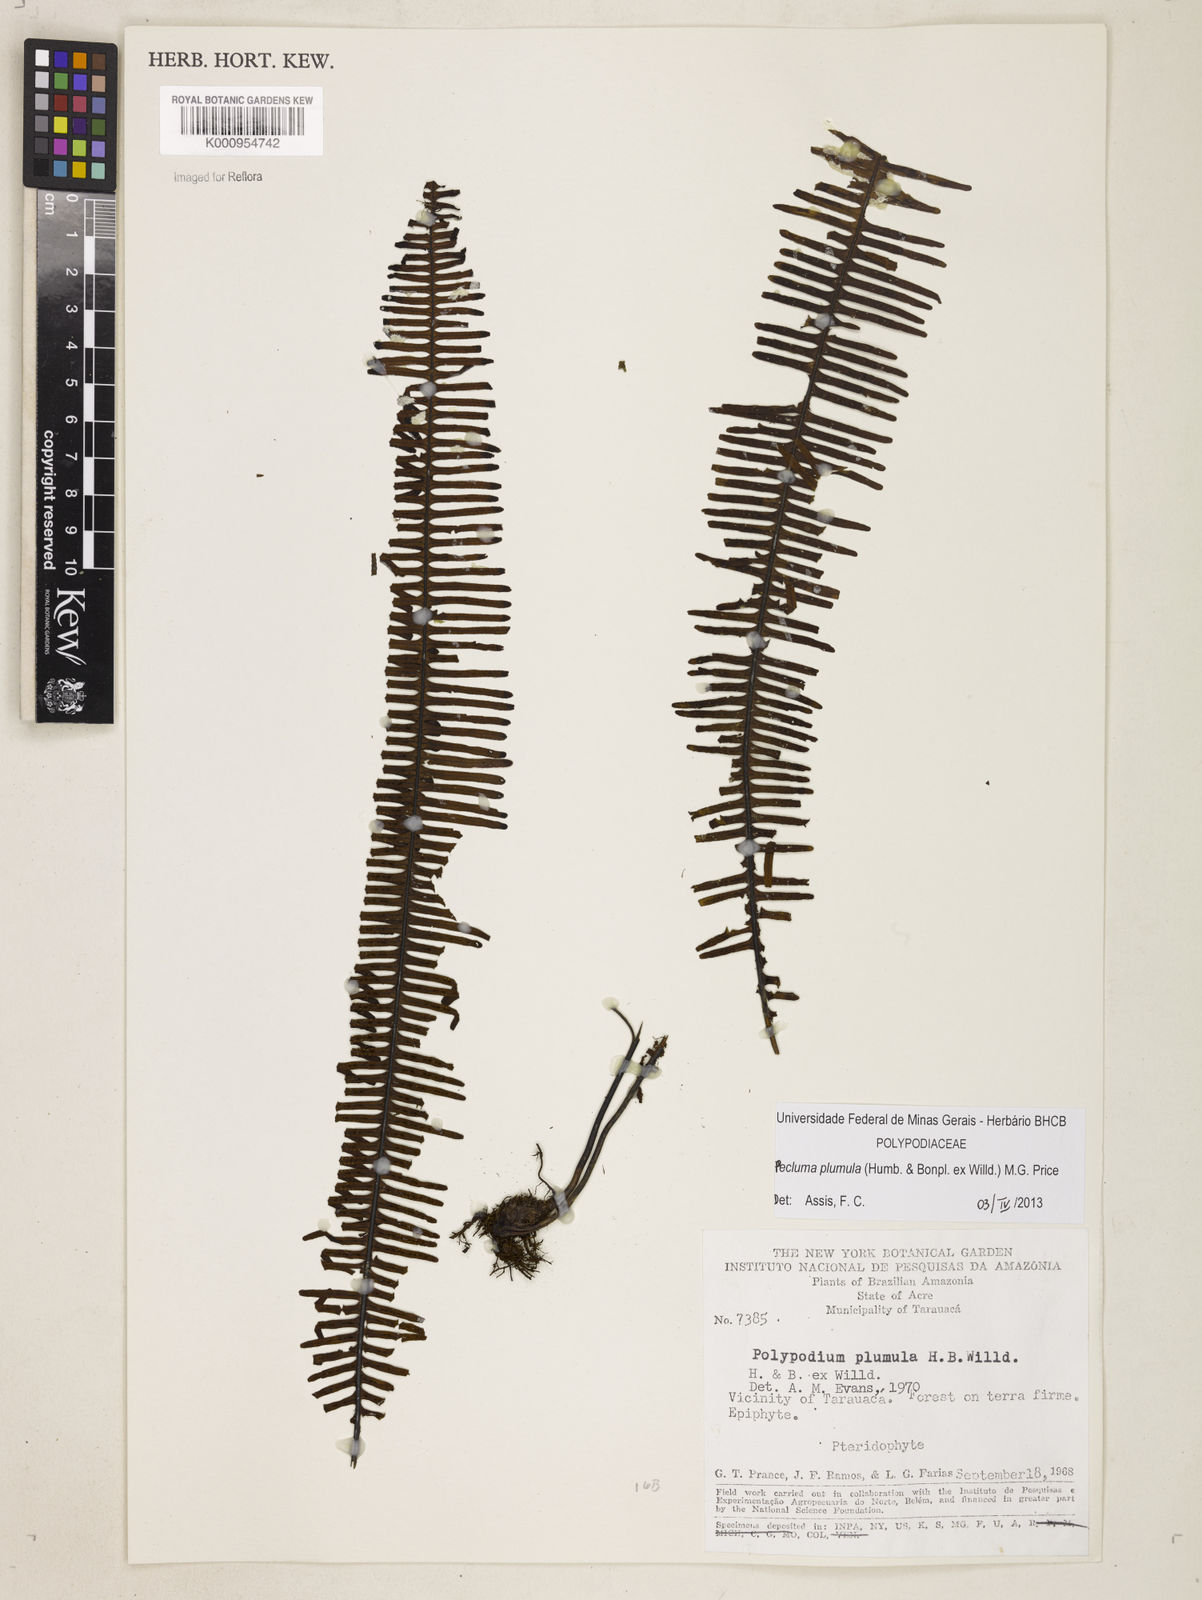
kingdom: Plantae
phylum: Tracheophyta
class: Polypodiopsida
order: Polypodiales
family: Polypodiaceae
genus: Pecluma
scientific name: Pecluma plumula
